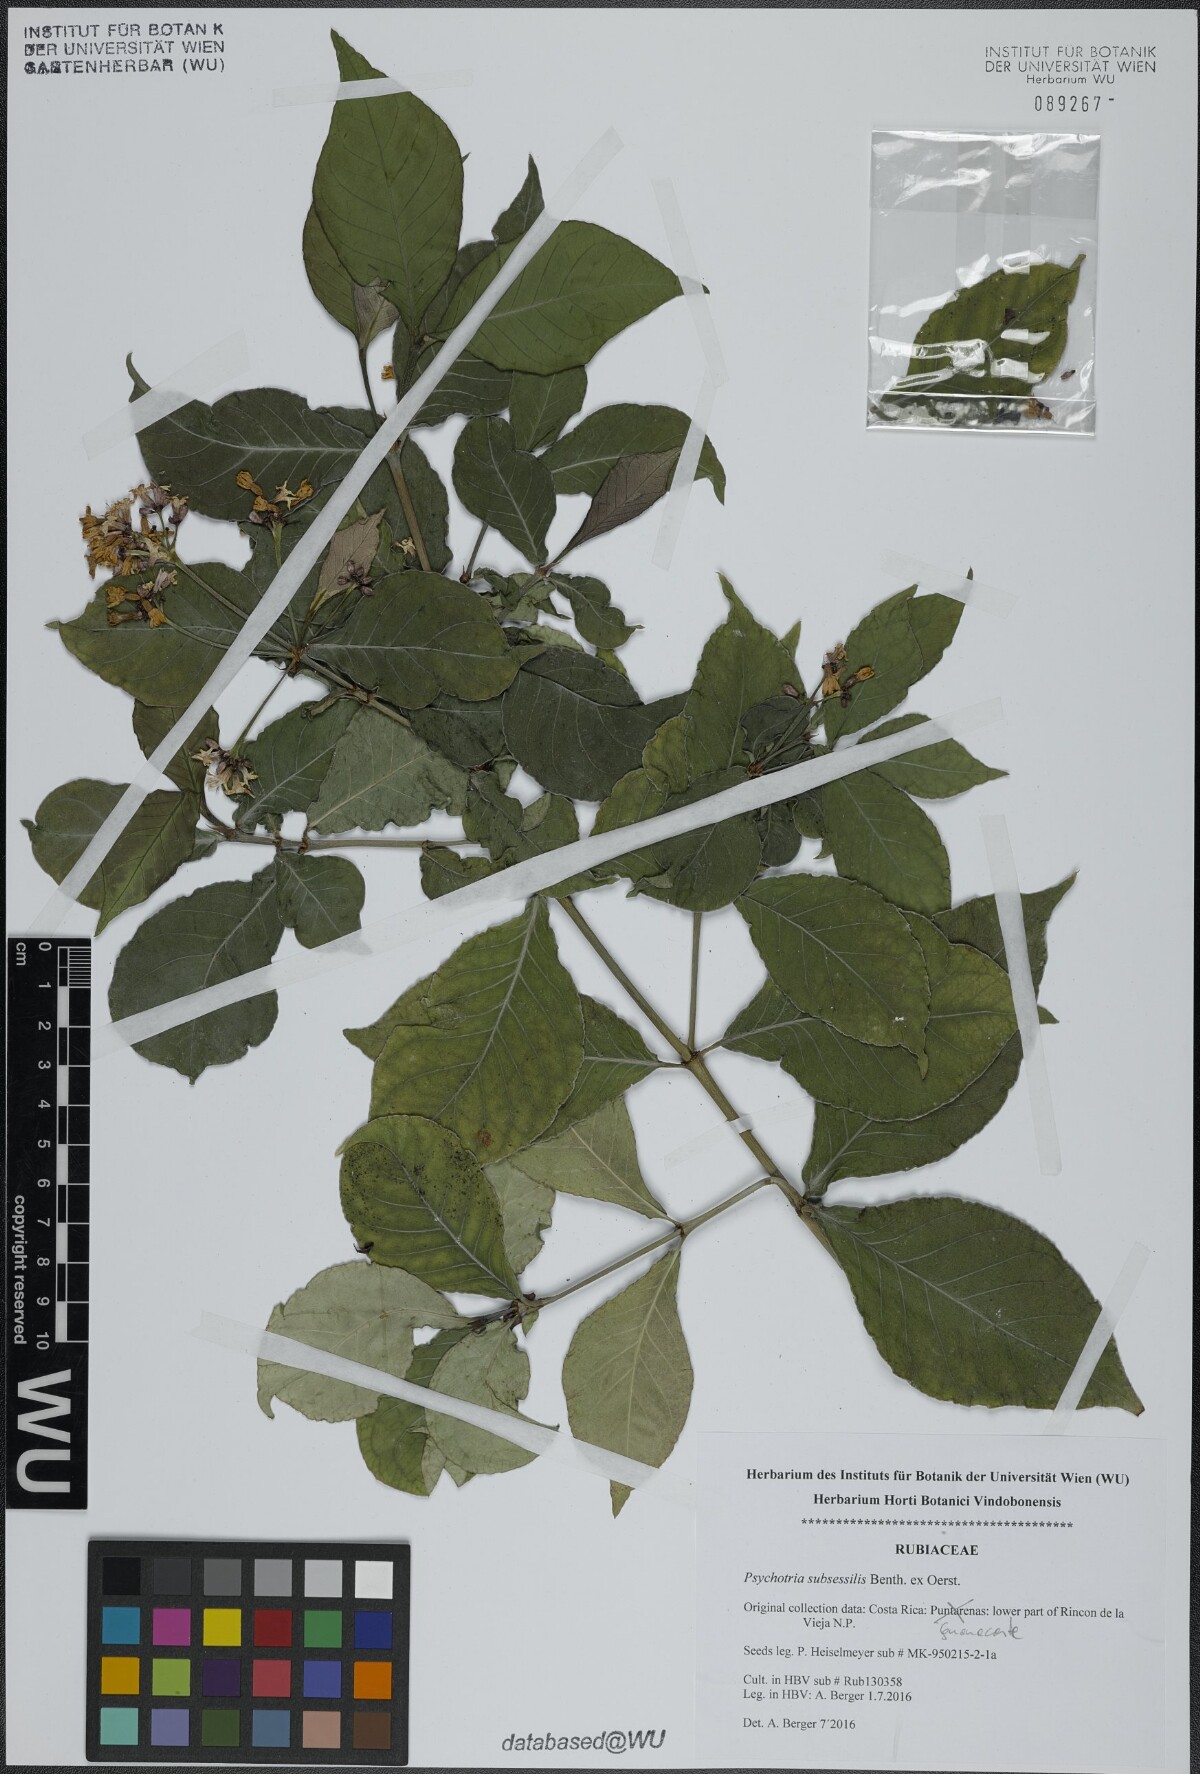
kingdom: Plantae
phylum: Tracheophyta
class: Magnoliopsida
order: Gentianales
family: Rubiaceae
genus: Psychotria
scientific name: Psychotria subsessilis
